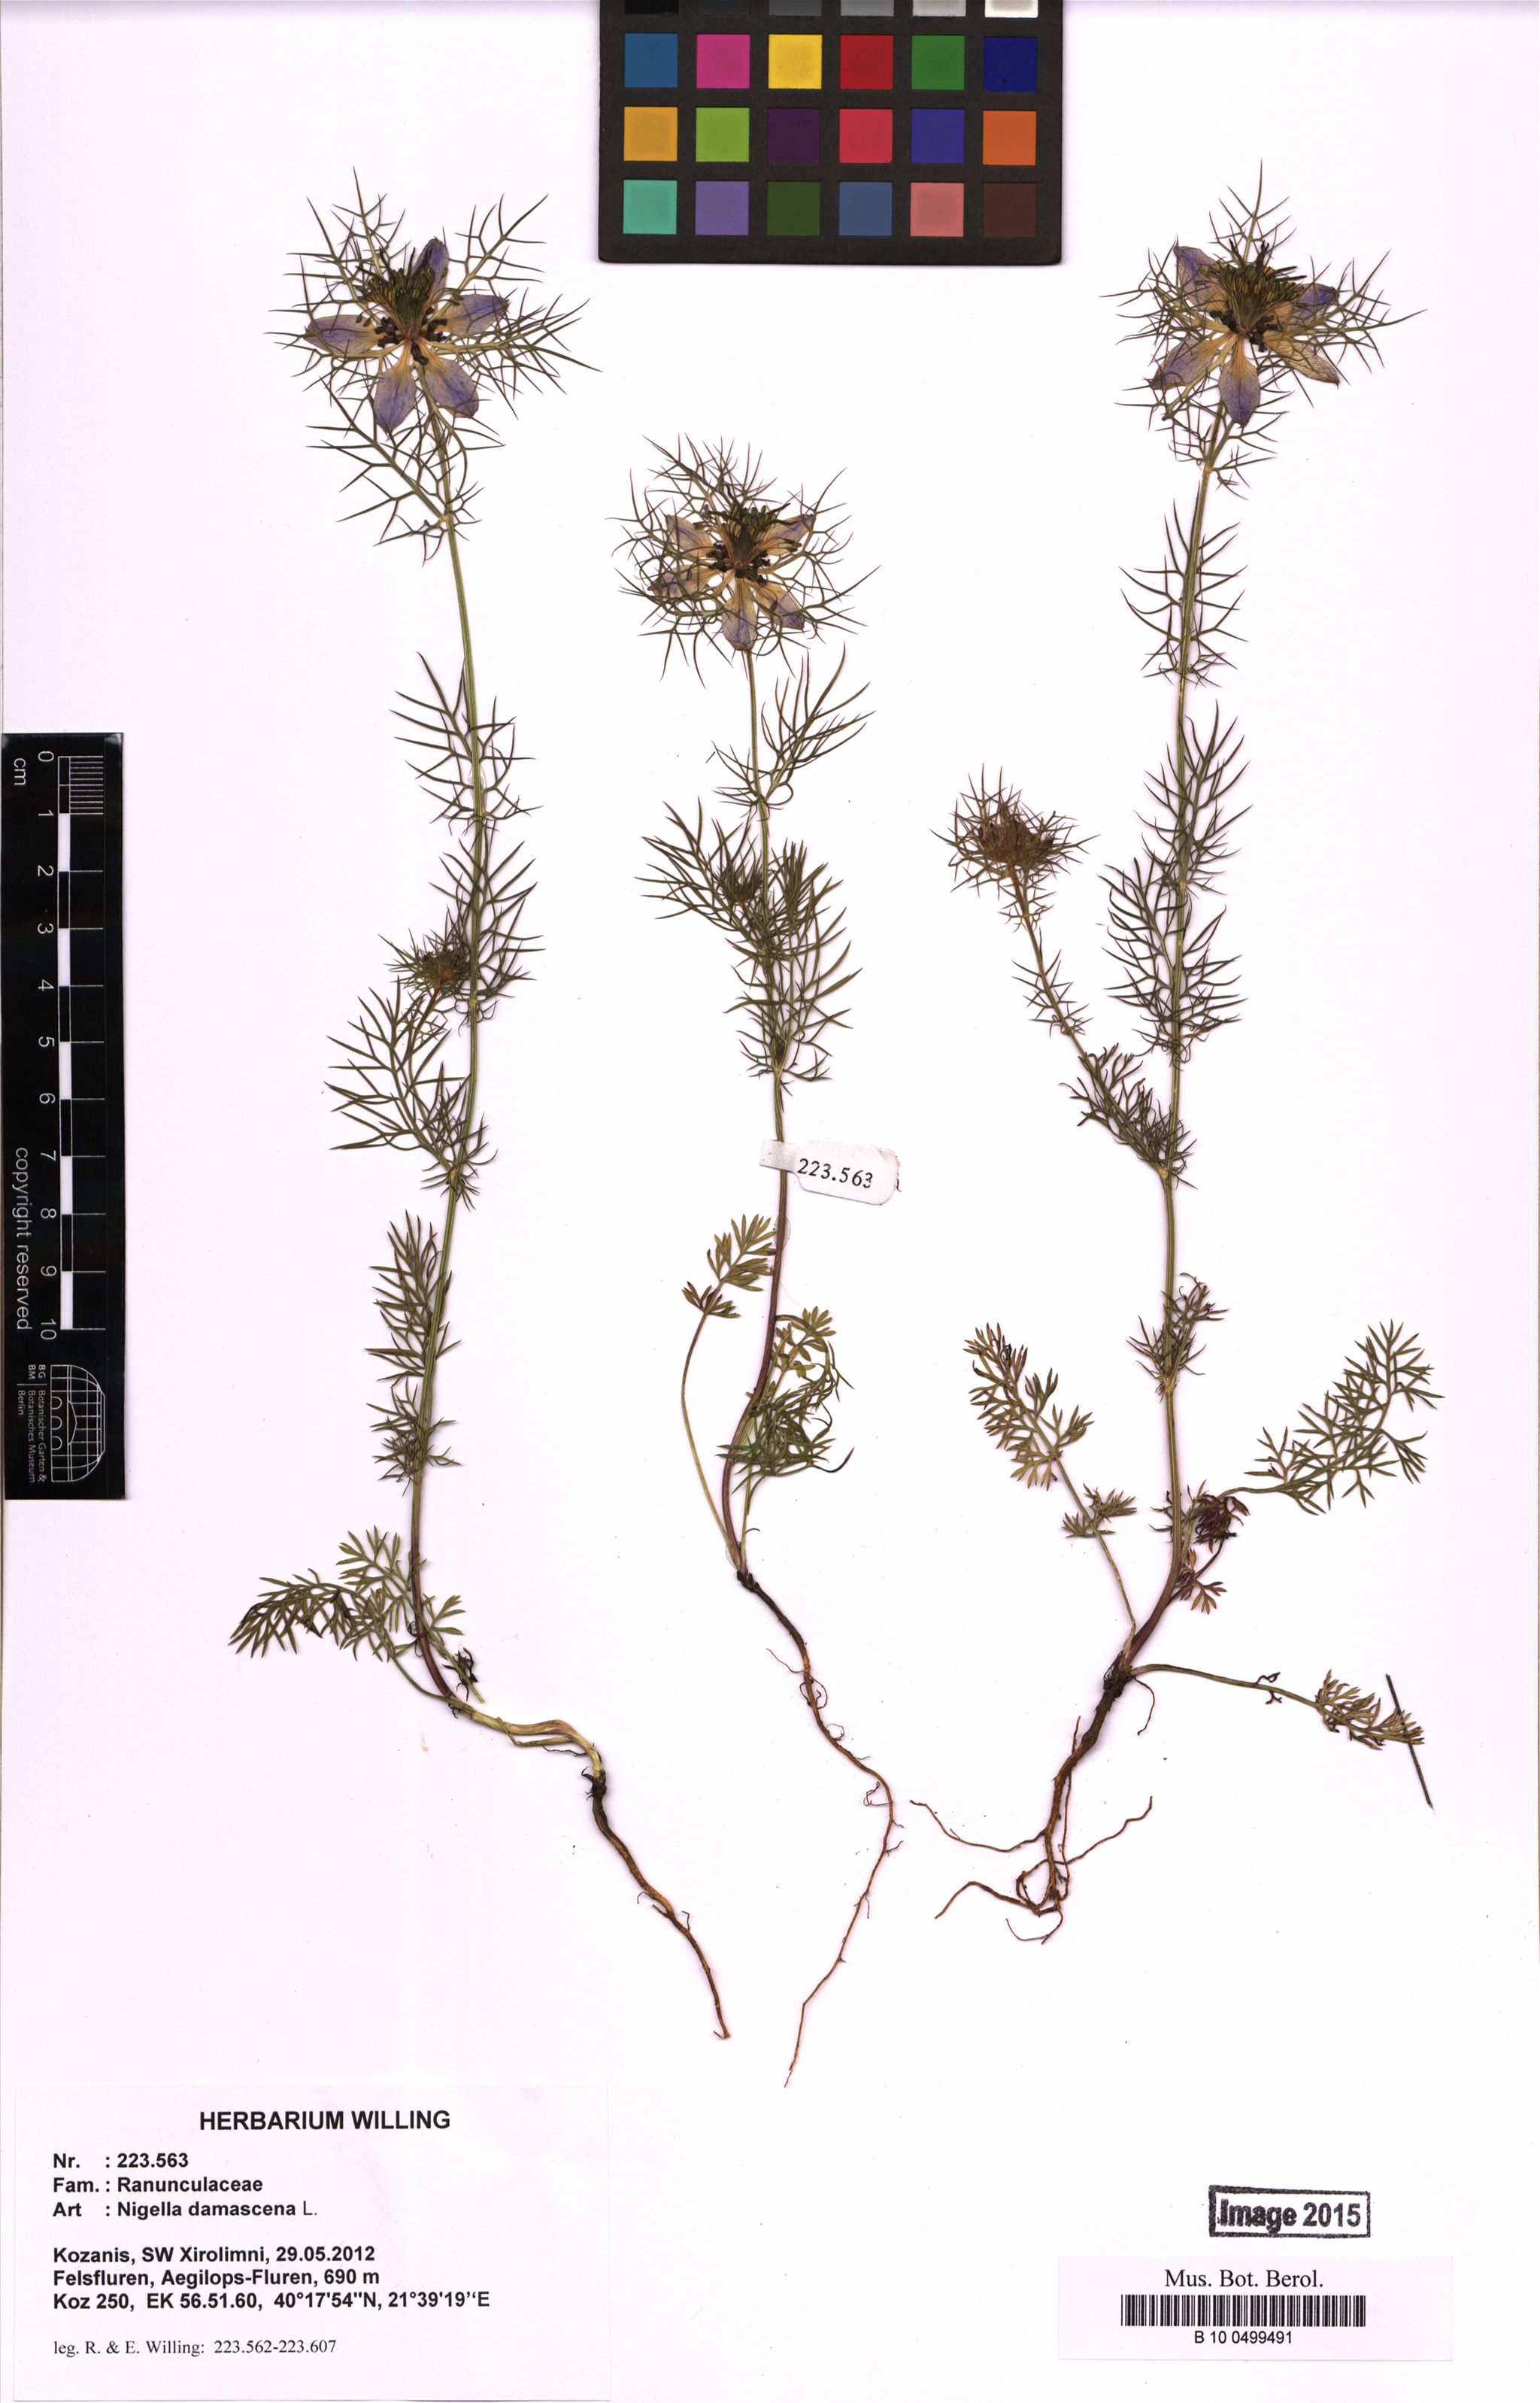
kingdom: Plantae
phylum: Tracheophyta
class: Magnoliopsida
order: Ranunculales
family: Ranunculaceae
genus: Nigella
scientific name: Nigella damascena
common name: Love-in-a-mist
